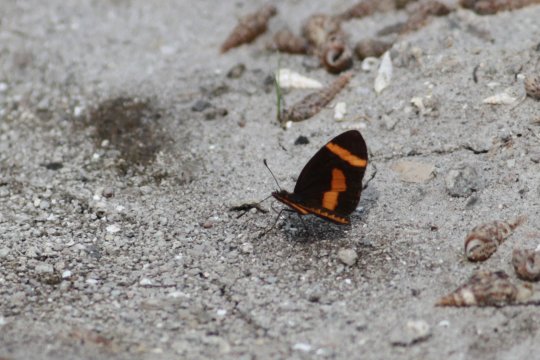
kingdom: Animalia
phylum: Arthropoda
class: Insecta
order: Lepidoptera
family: Nymphalidae
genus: Microtia
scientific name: Microtia elva
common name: Elf
